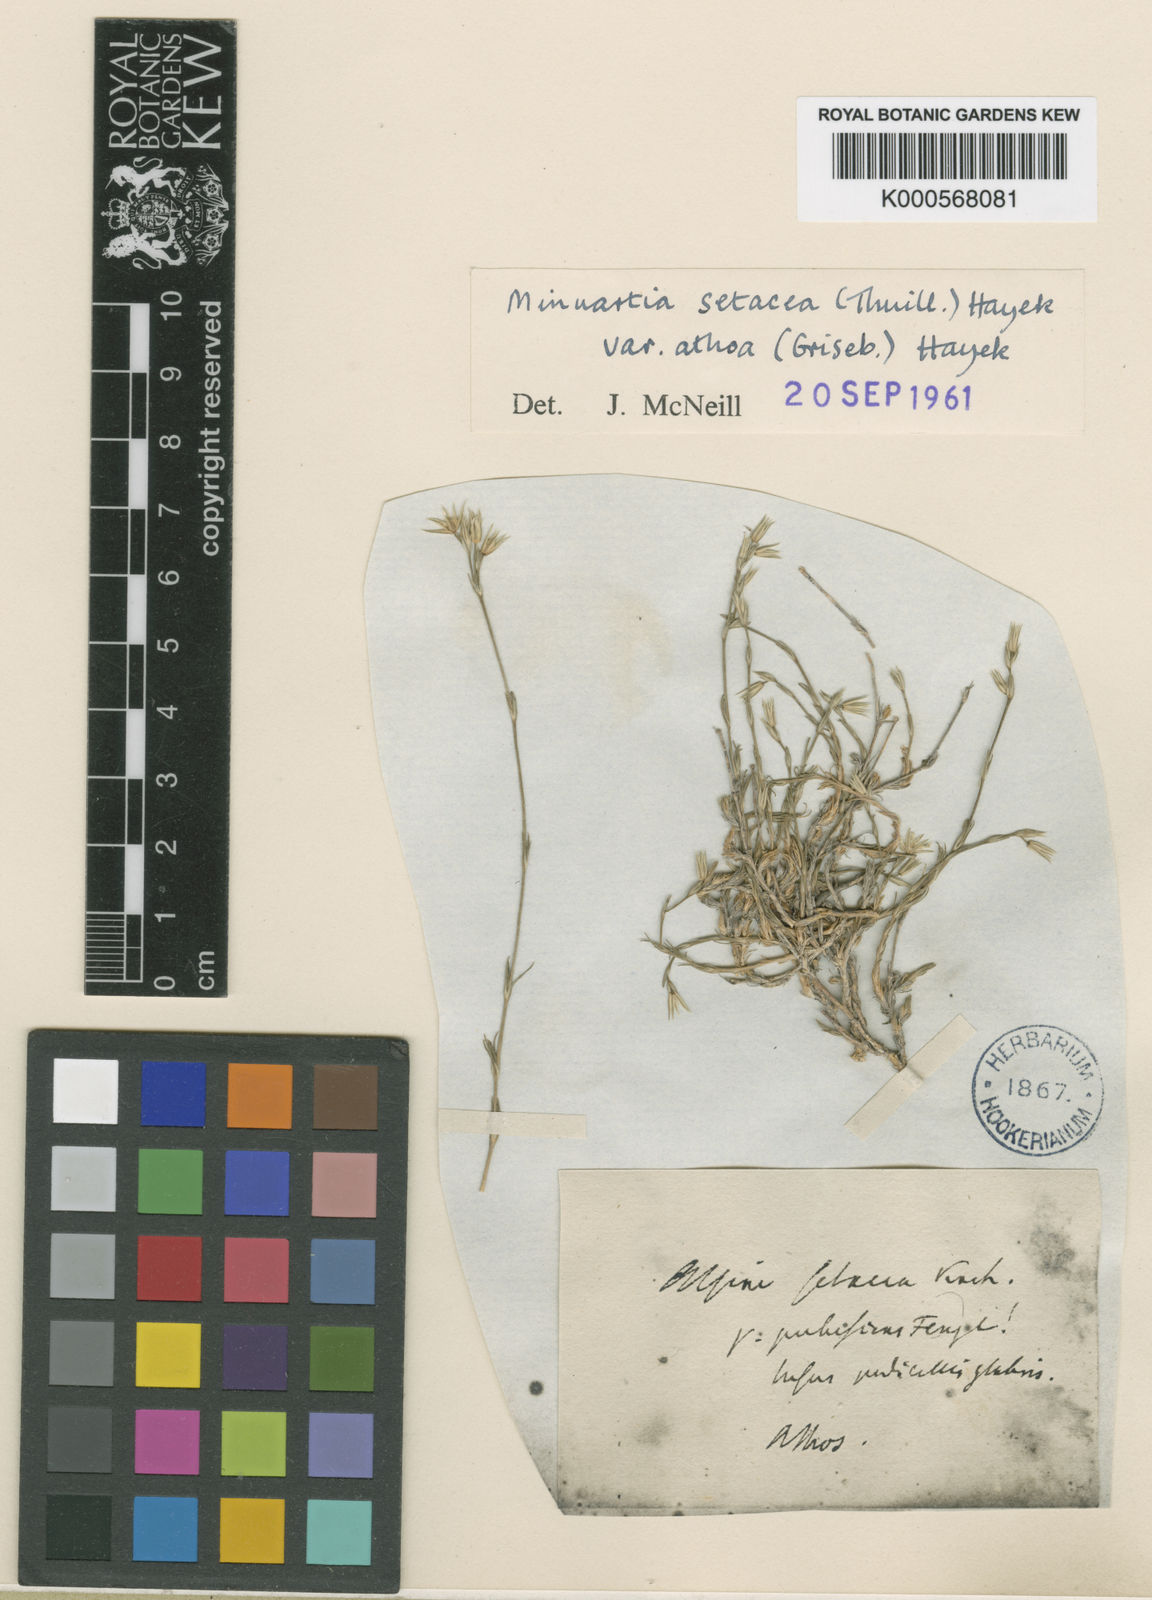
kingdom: Plantae
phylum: Tracheophyta
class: Magnoliopsida
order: Caryophyllales
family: Caryophyllaceae
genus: Minuartia
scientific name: Minuartia setacea
